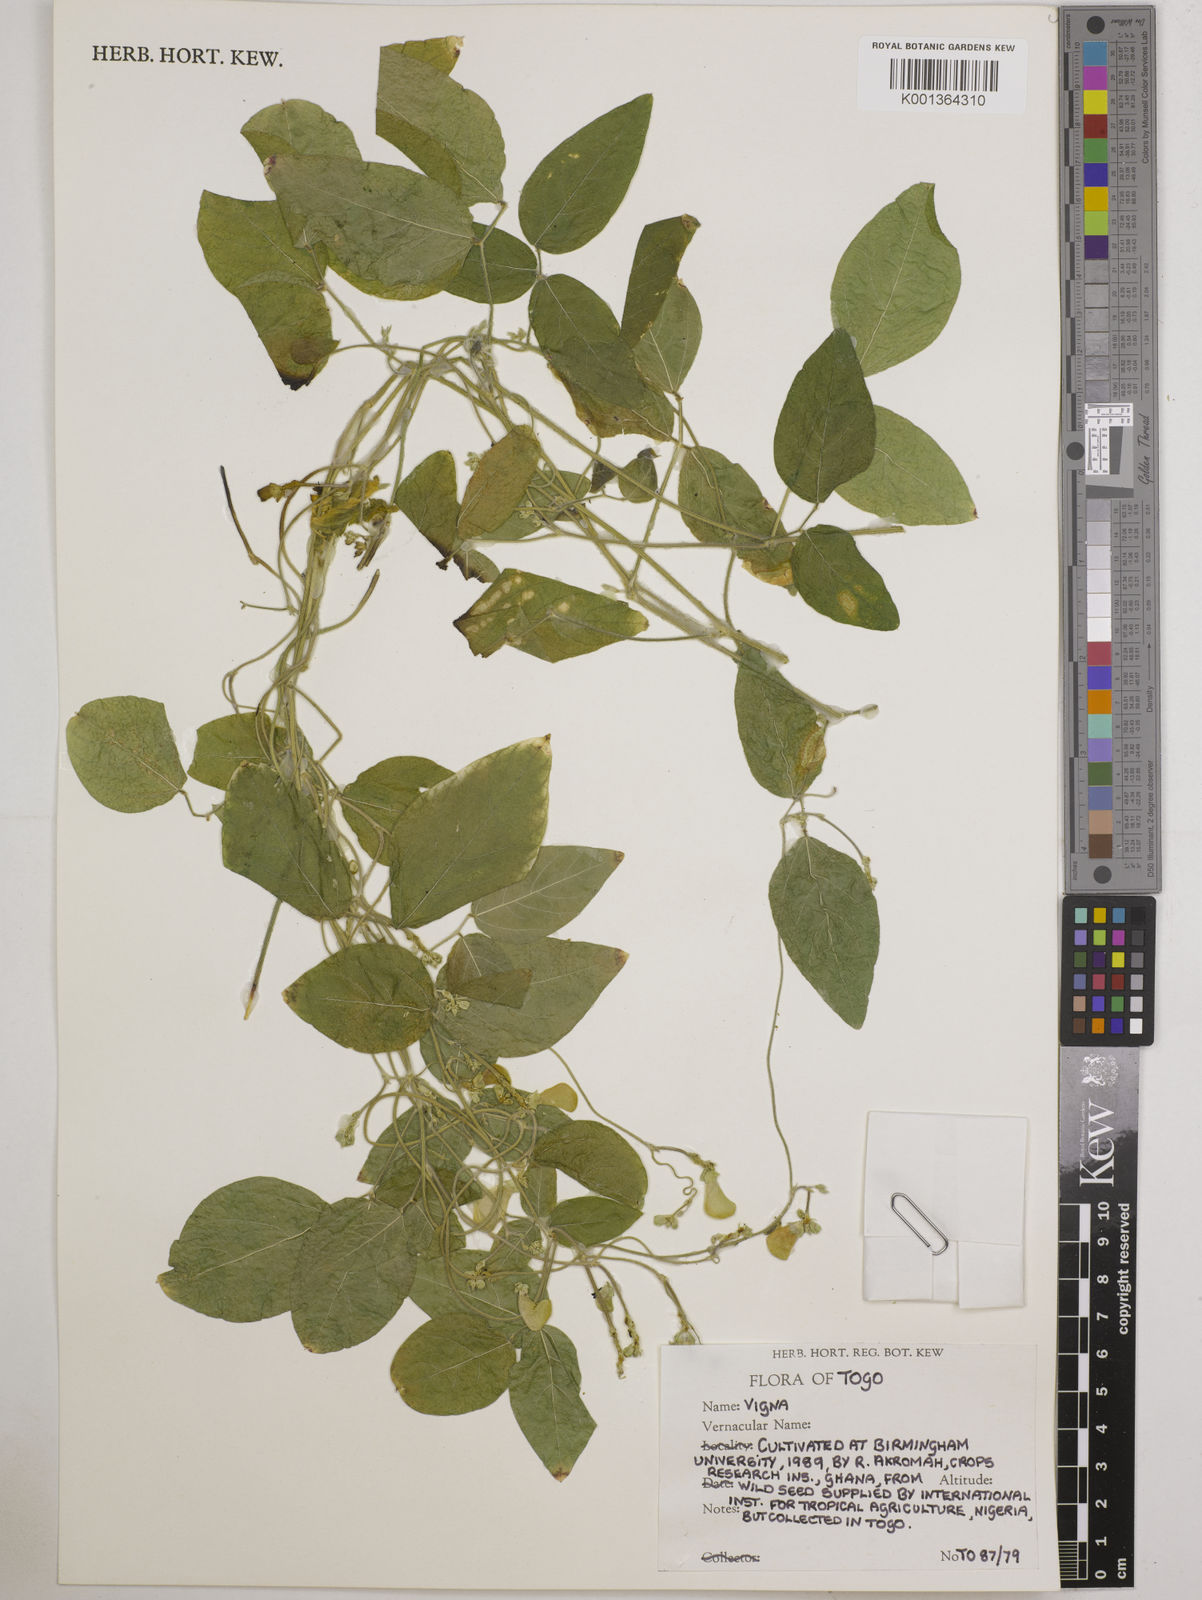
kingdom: Plantae
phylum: Tracheophyta
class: Magnoliopsida
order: Fabales
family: Fabaceae
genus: Vigna
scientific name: Vigna
